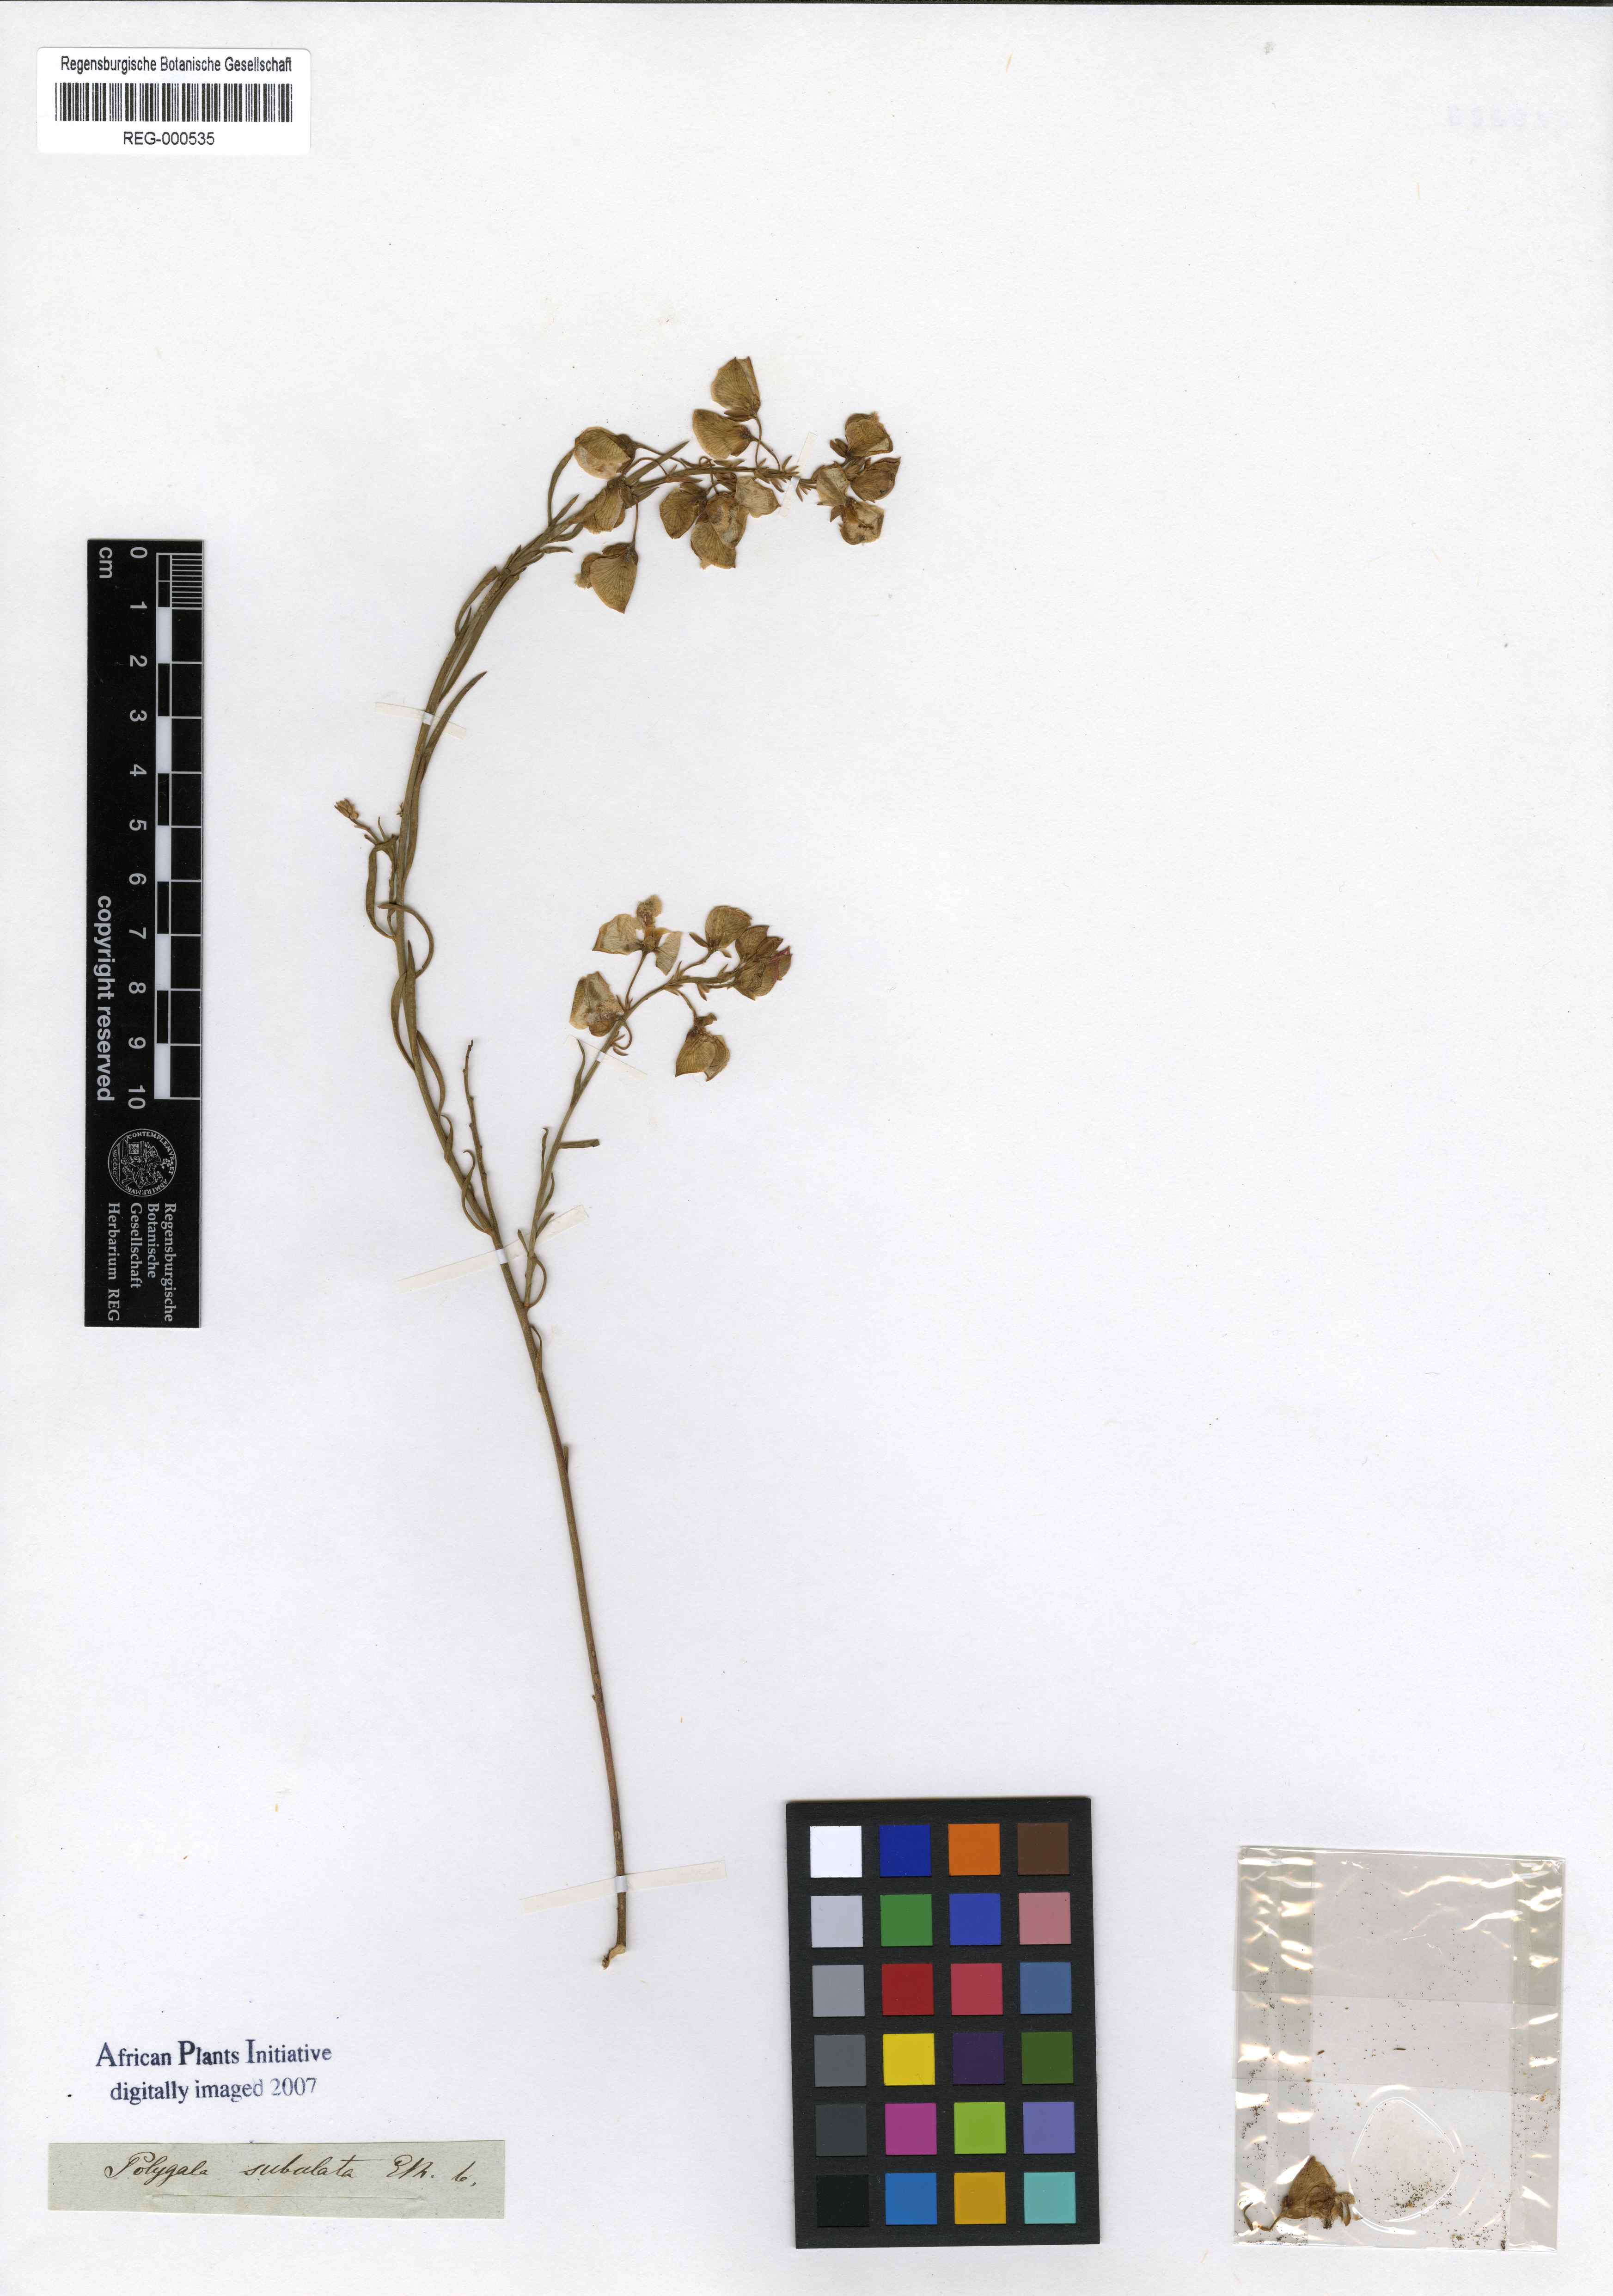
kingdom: Plantae
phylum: Tracheophyta
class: Magnoliopsida
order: Fabales
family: Polygalaceae
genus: Polygala
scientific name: Polygala subulata
